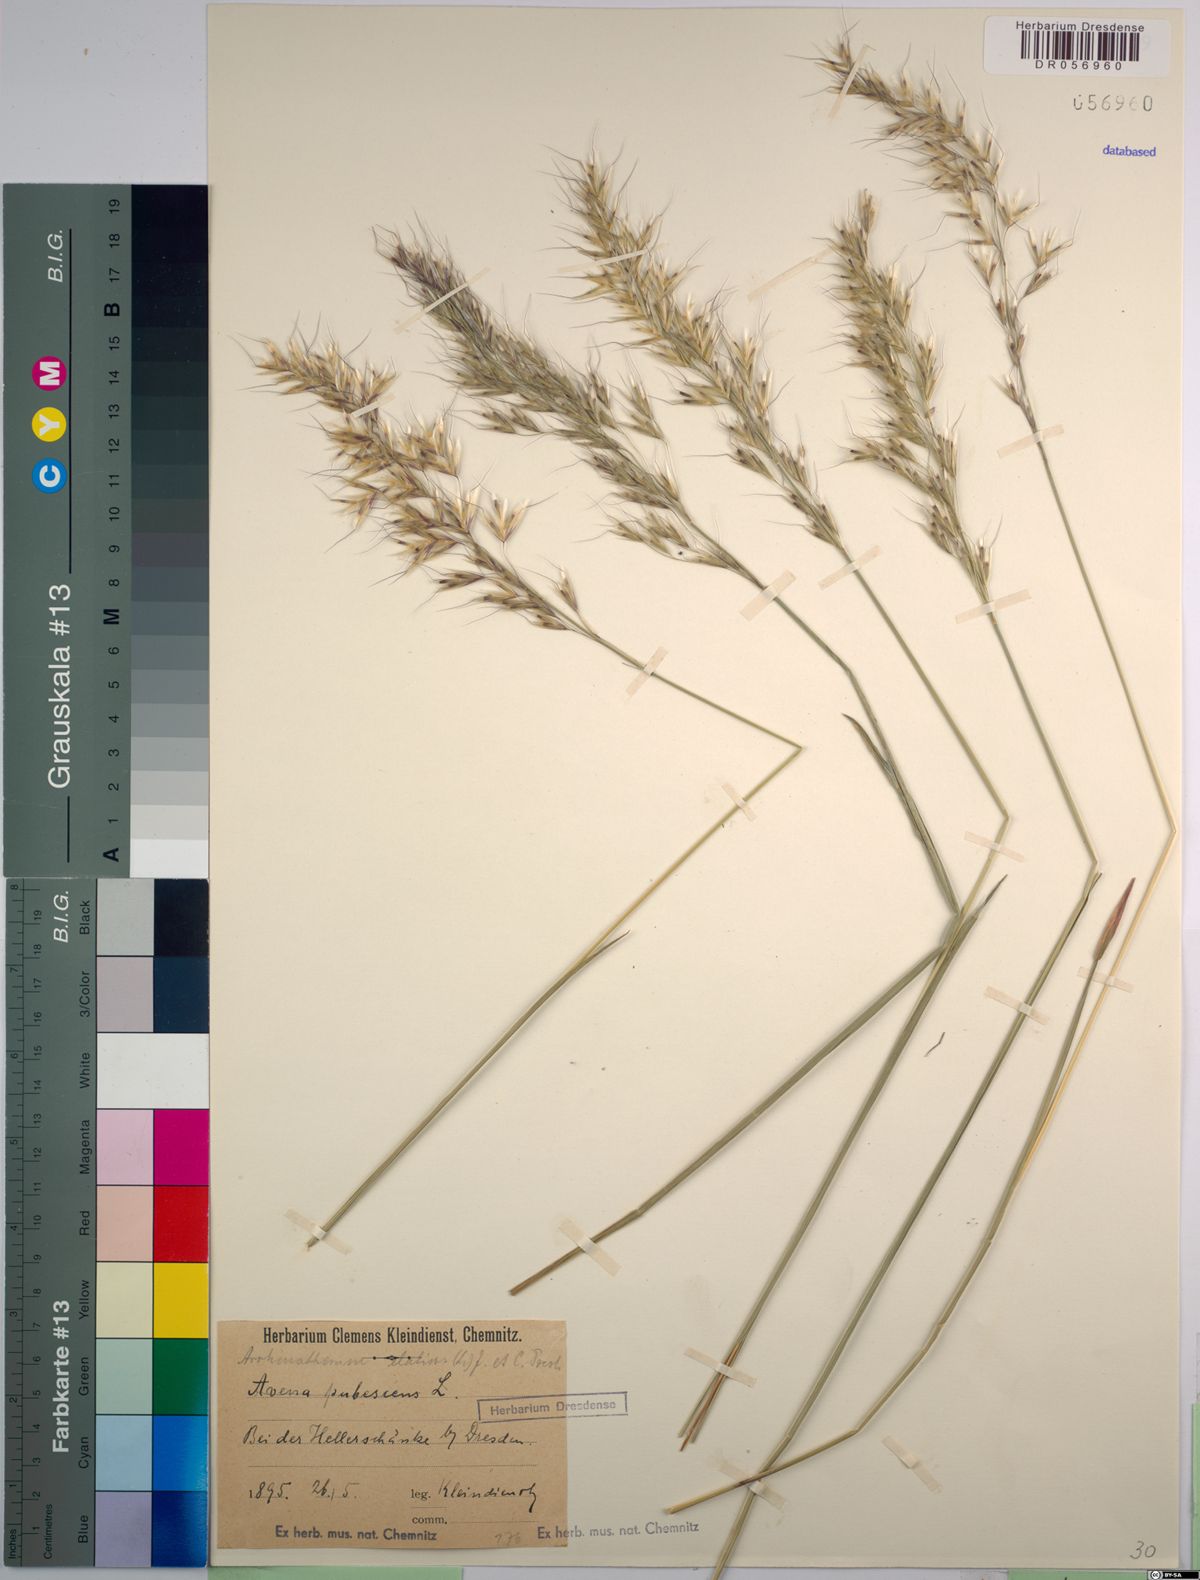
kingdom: Plantae
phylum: Tracheophyta
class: Liliopsida
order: Poales
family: Poaceae
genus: Arrhenatherum
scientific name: Arrhenatherum elatius
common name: Tall oatgrass
